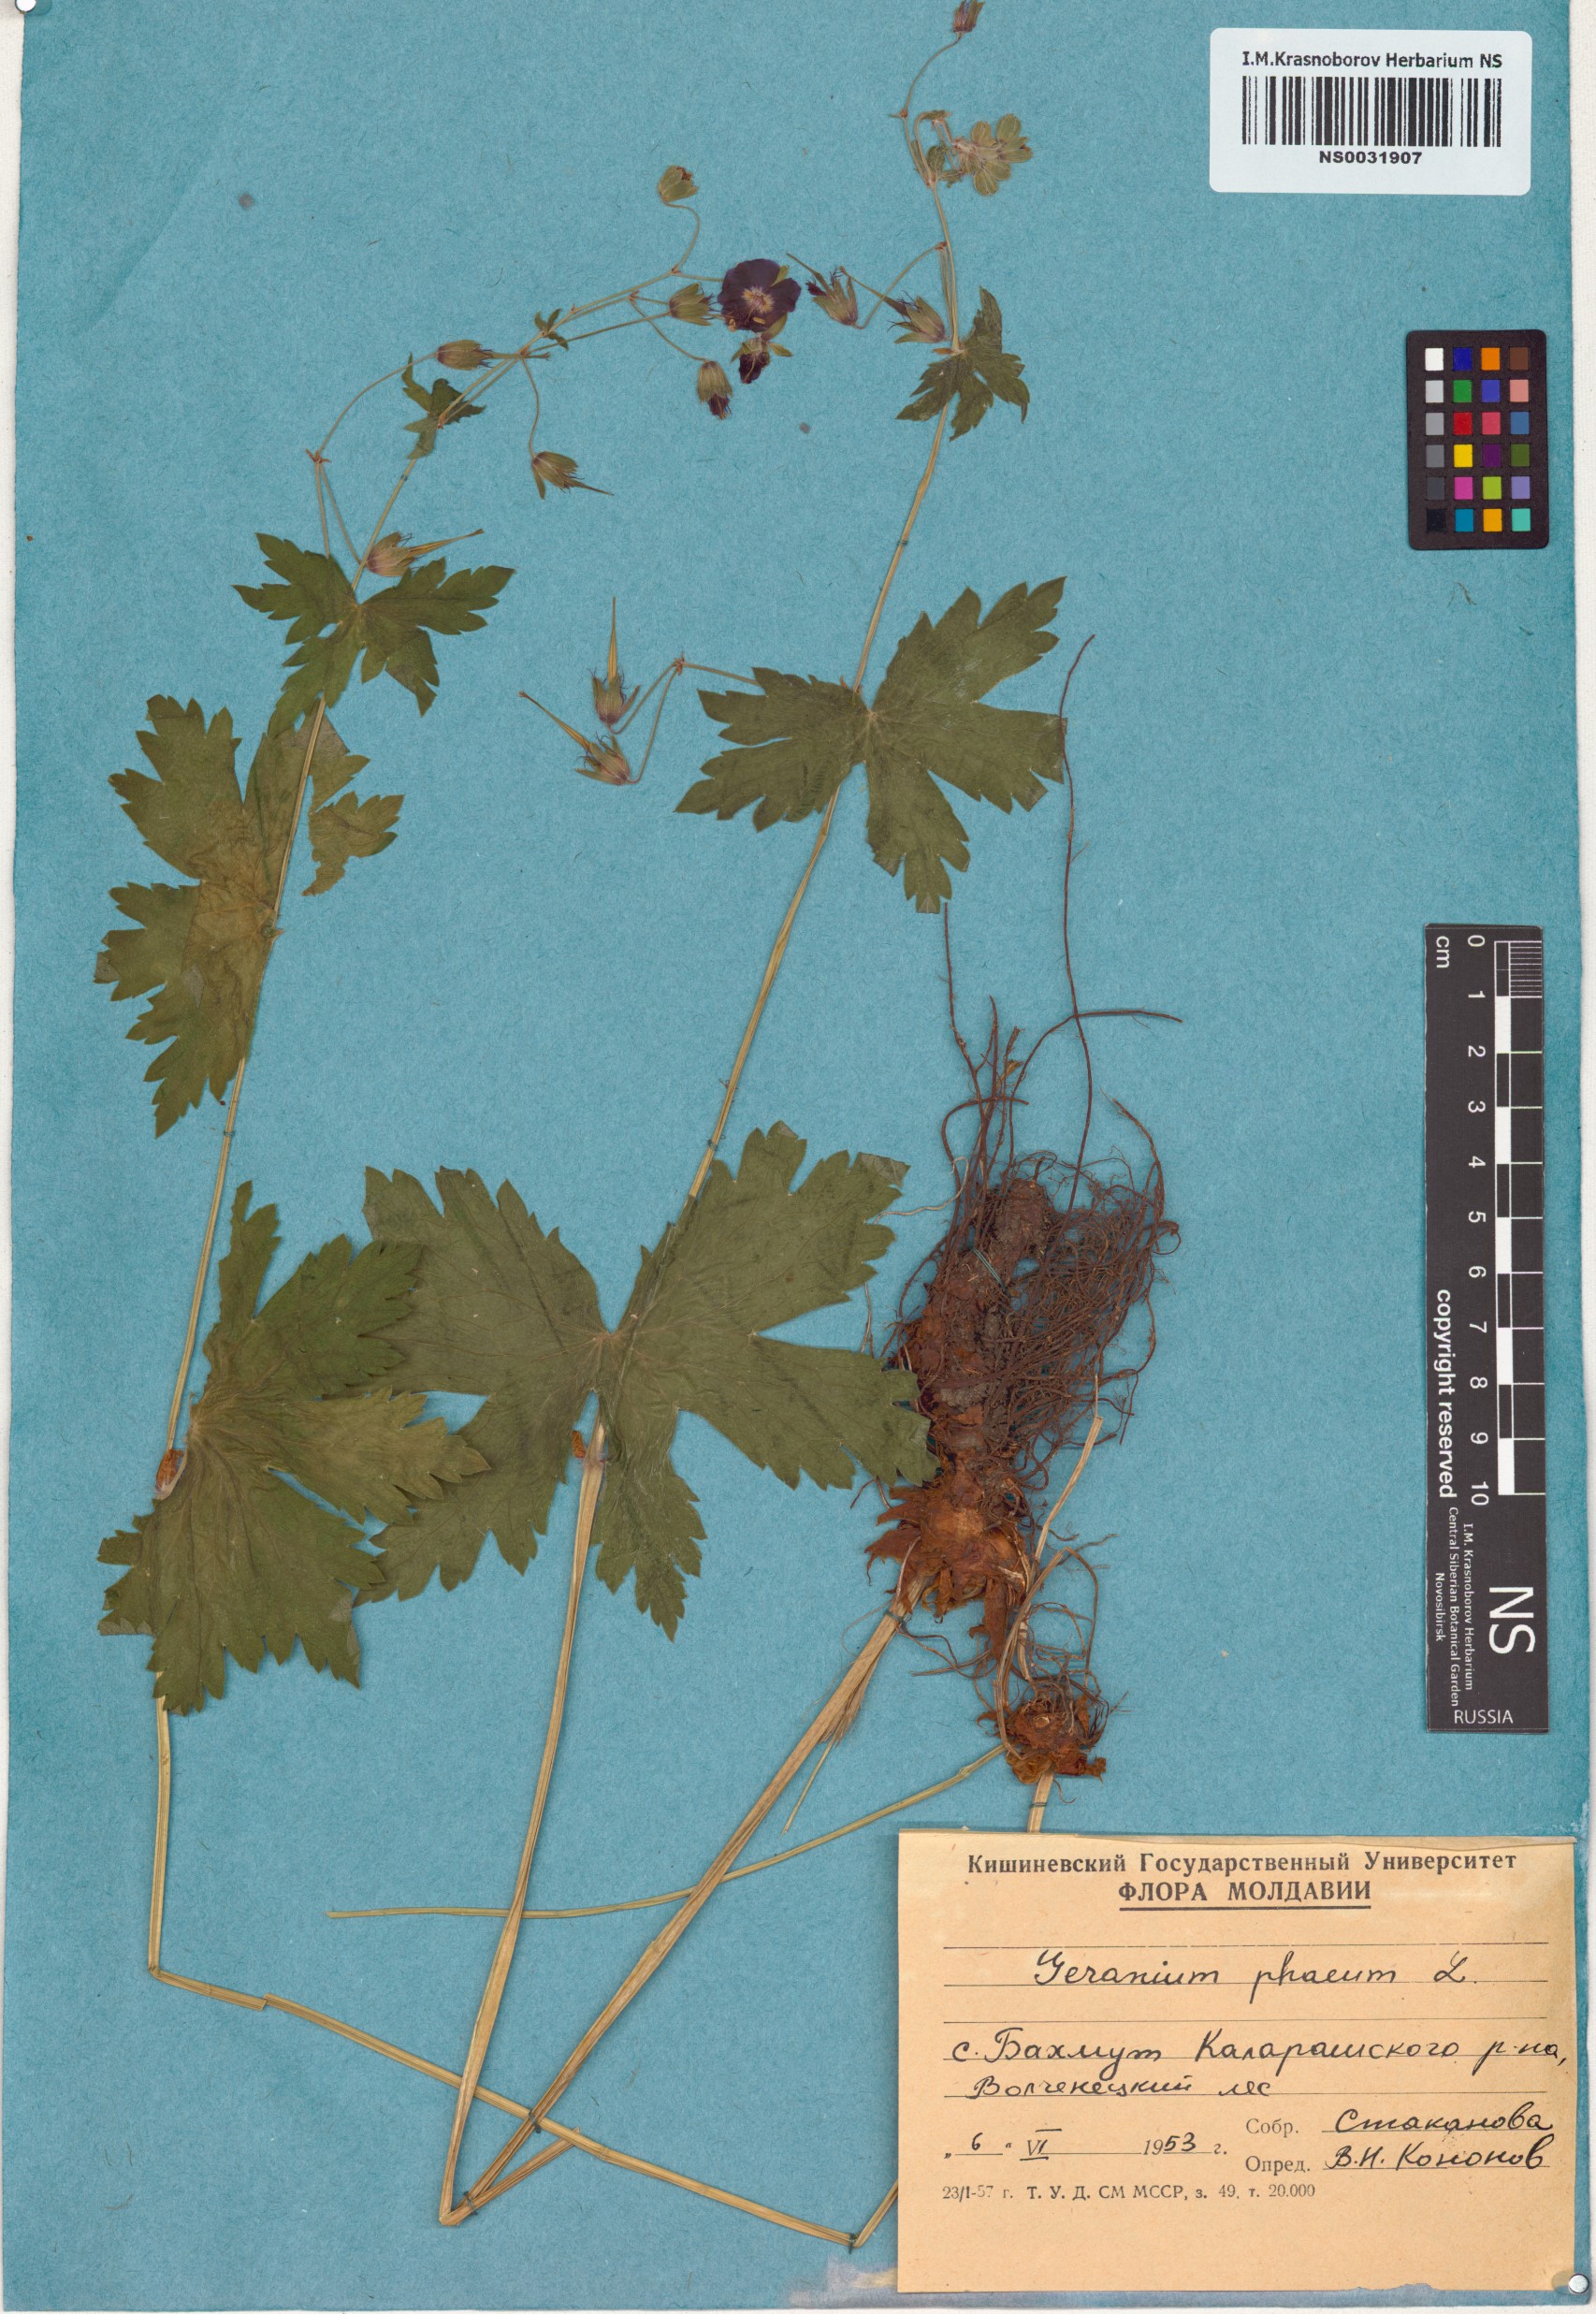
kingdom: Plantae
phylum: Tracheophyta
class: Magnoliopsida
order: Geraniales
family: Geraniaceae
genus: Geranium
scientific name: Geranium phaeum
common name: Dusky crane's-bill
